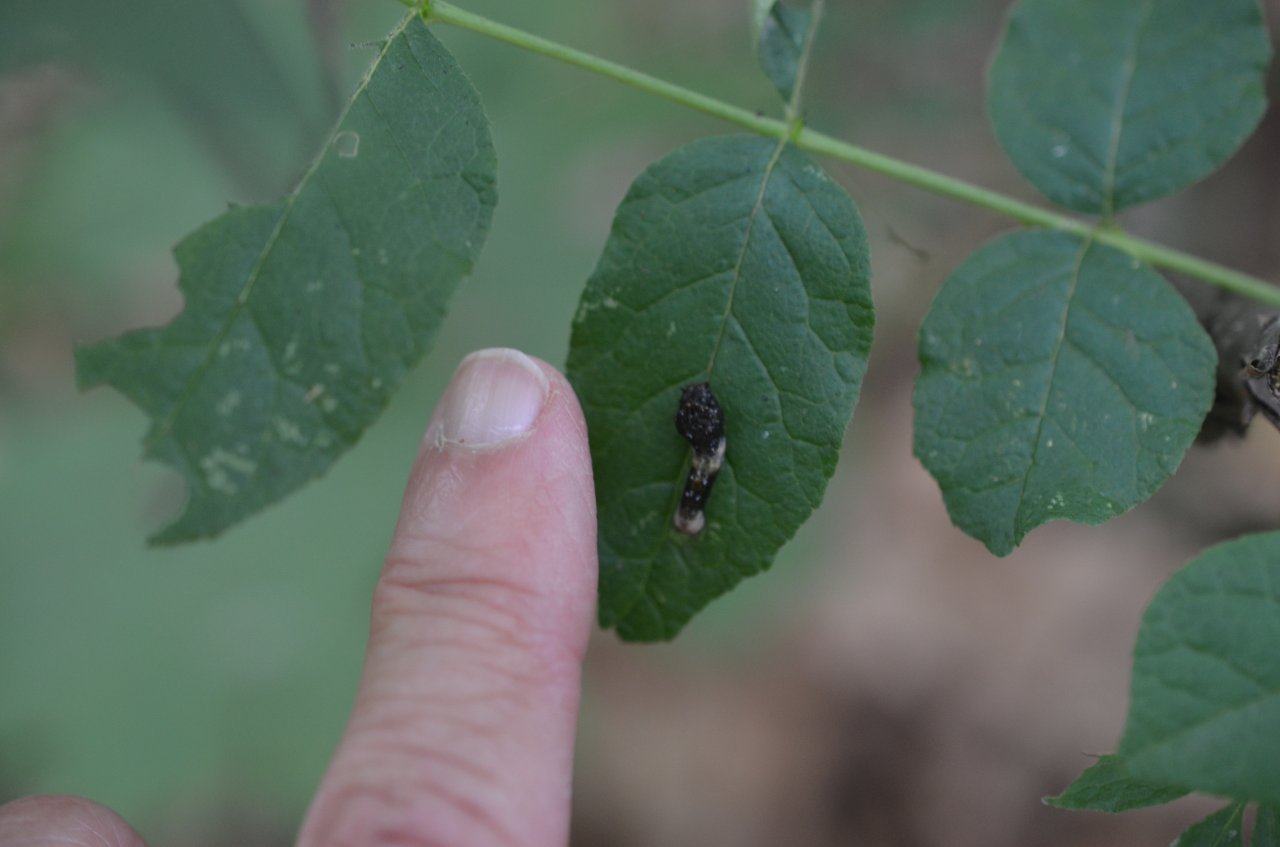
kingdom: Animalia
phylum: Arthropoda
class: Insecta
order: Lepidoptera
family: Papilionidae
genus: Papilio
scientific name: Papilio cresphontes
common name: Eastern Giant Swallowtail
